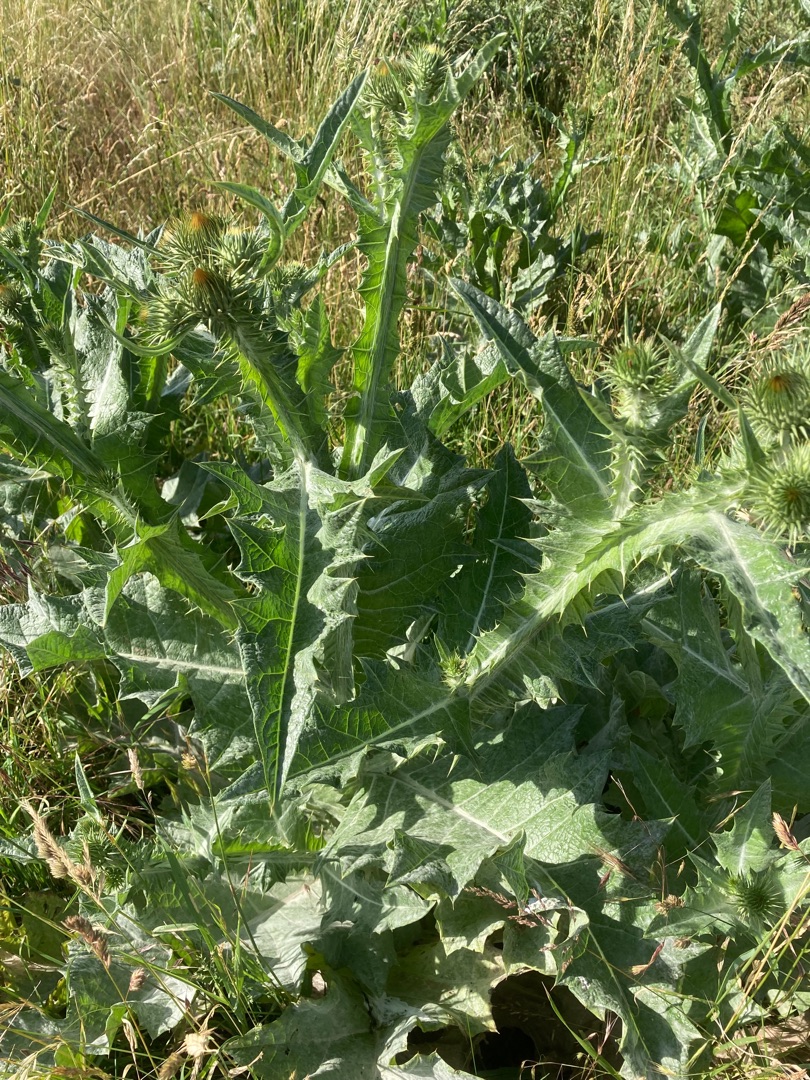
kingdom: Plantae
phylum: Tracheophyta
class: Magnoliopsida
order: Asterales
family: Asteraceae
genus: Onopordum
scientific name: Onopordum acanthium
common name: Æselfoder
